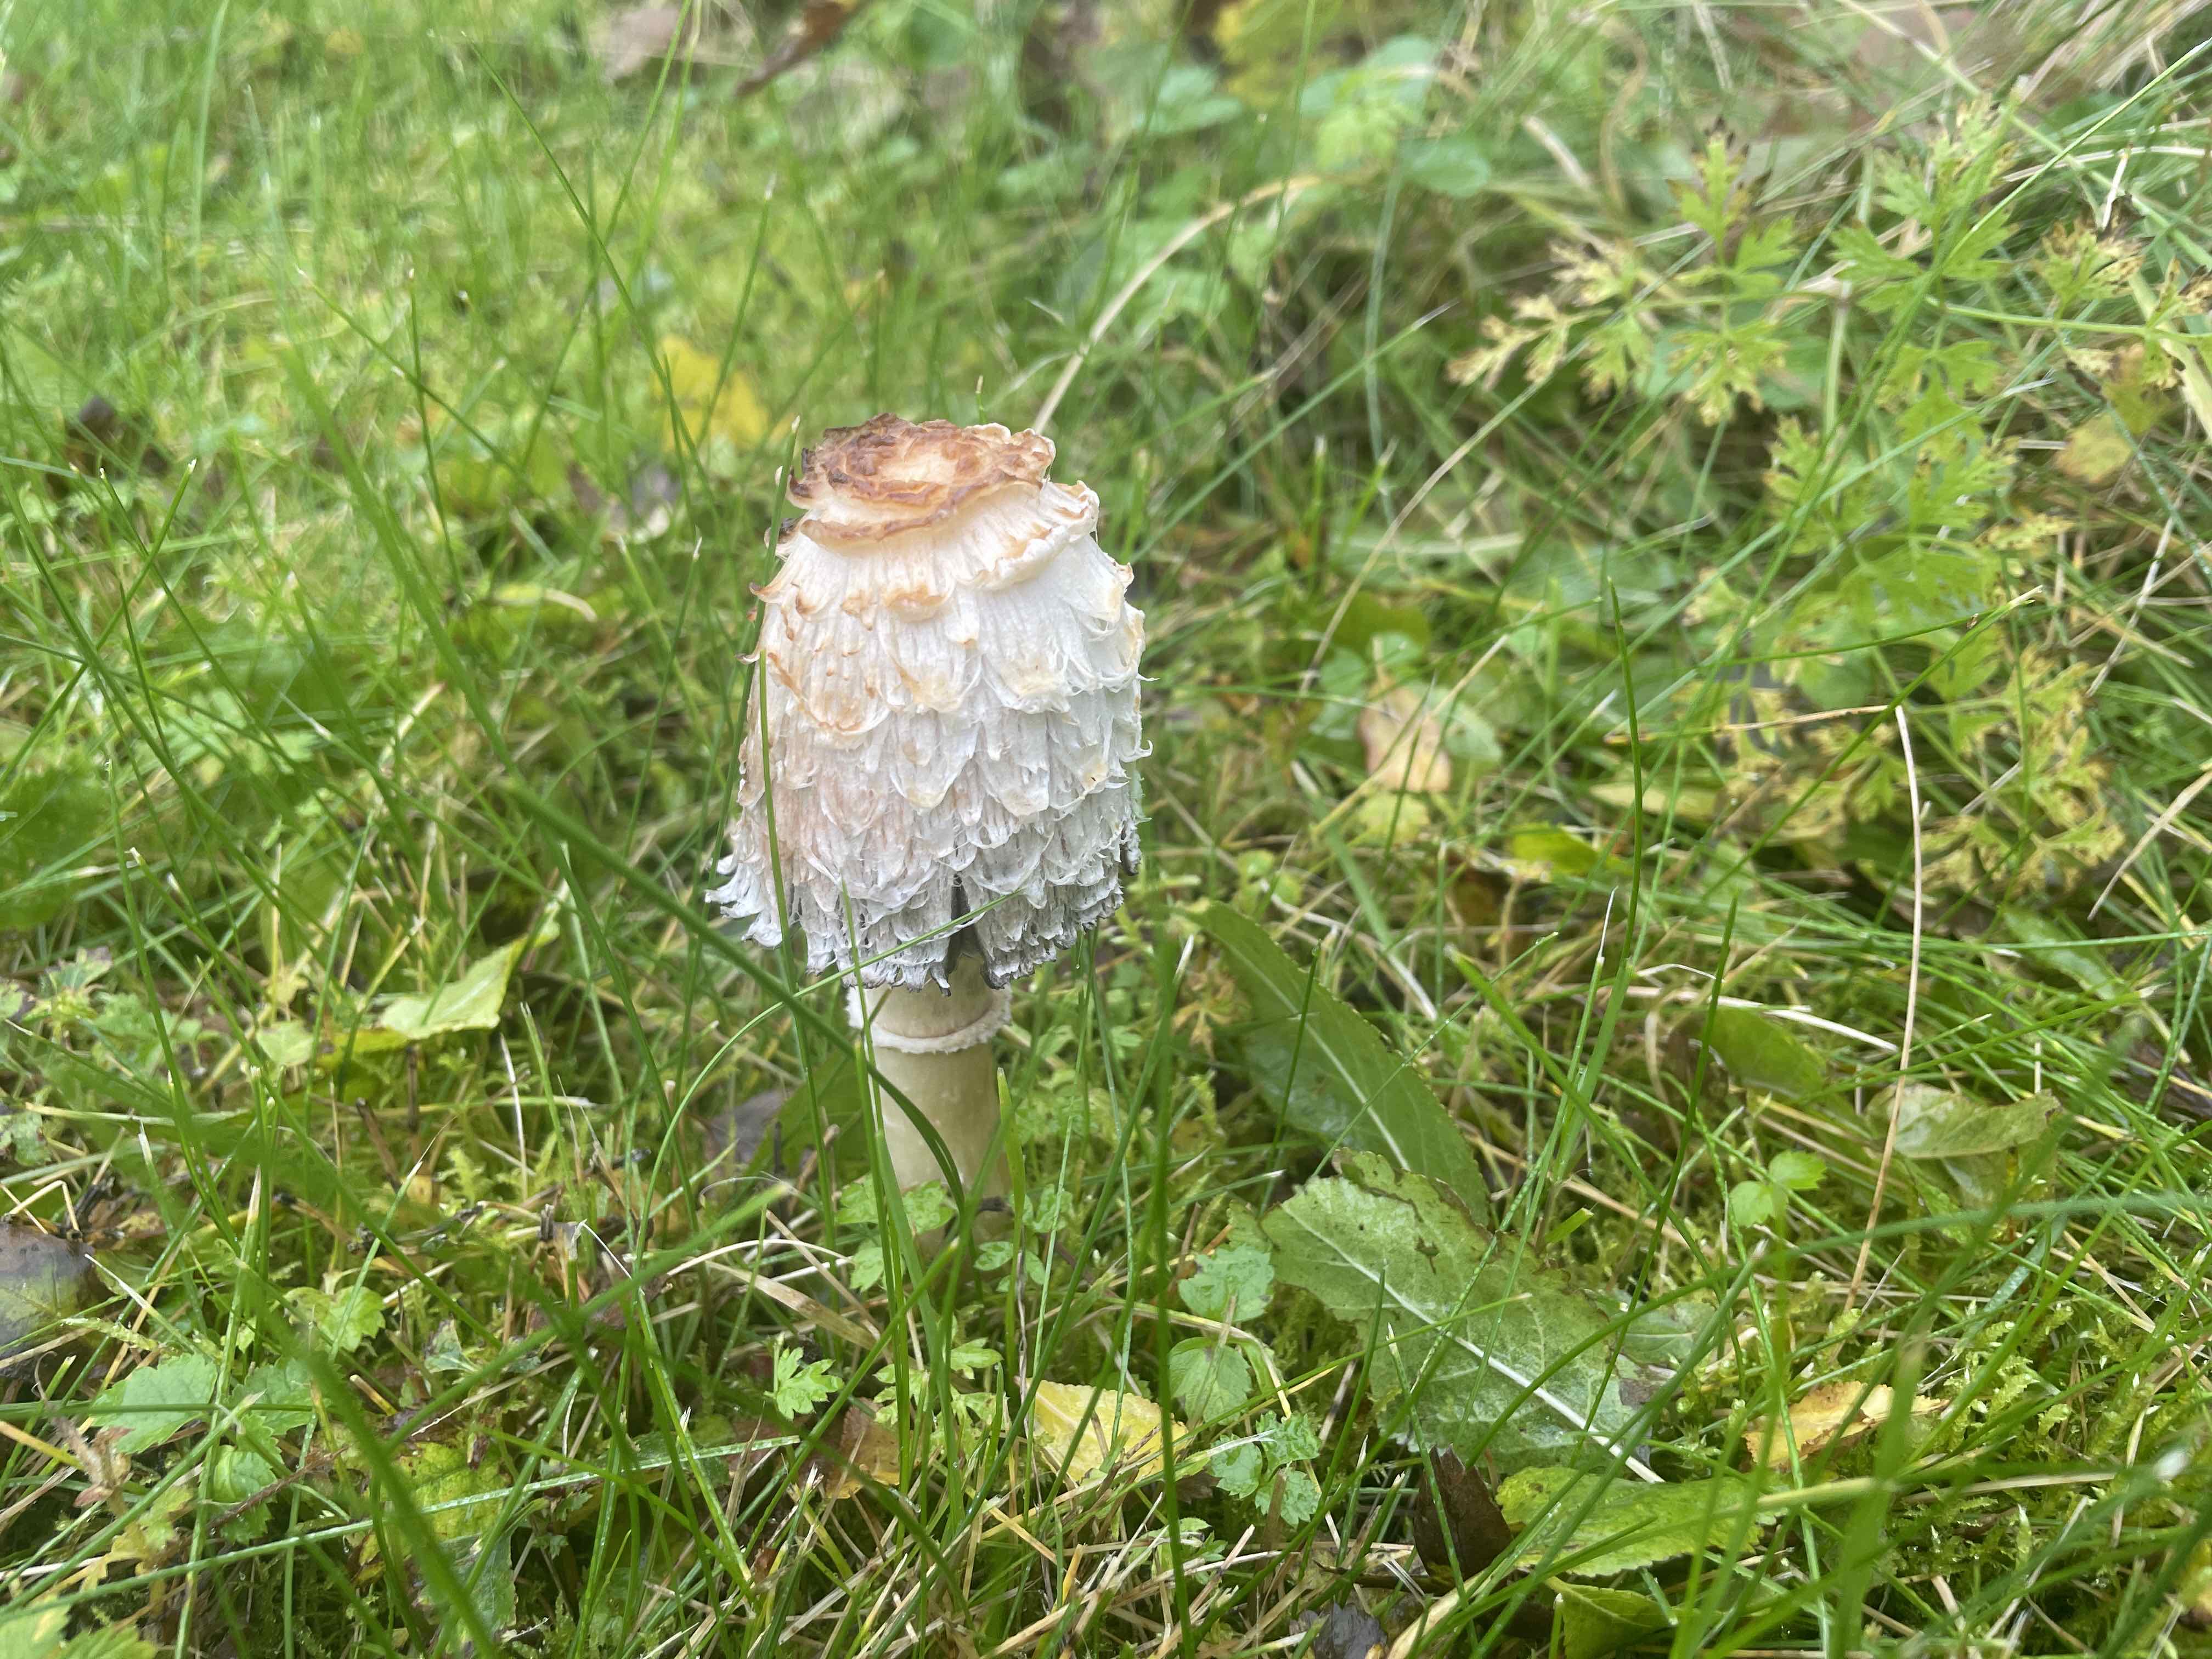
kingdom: Fungi
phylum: Basidiomycota
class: Agaricomycetes
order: Agaricales
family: Agaricaceae
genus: Coprinus
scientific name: Coprinus comatus
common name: stor parykhat
